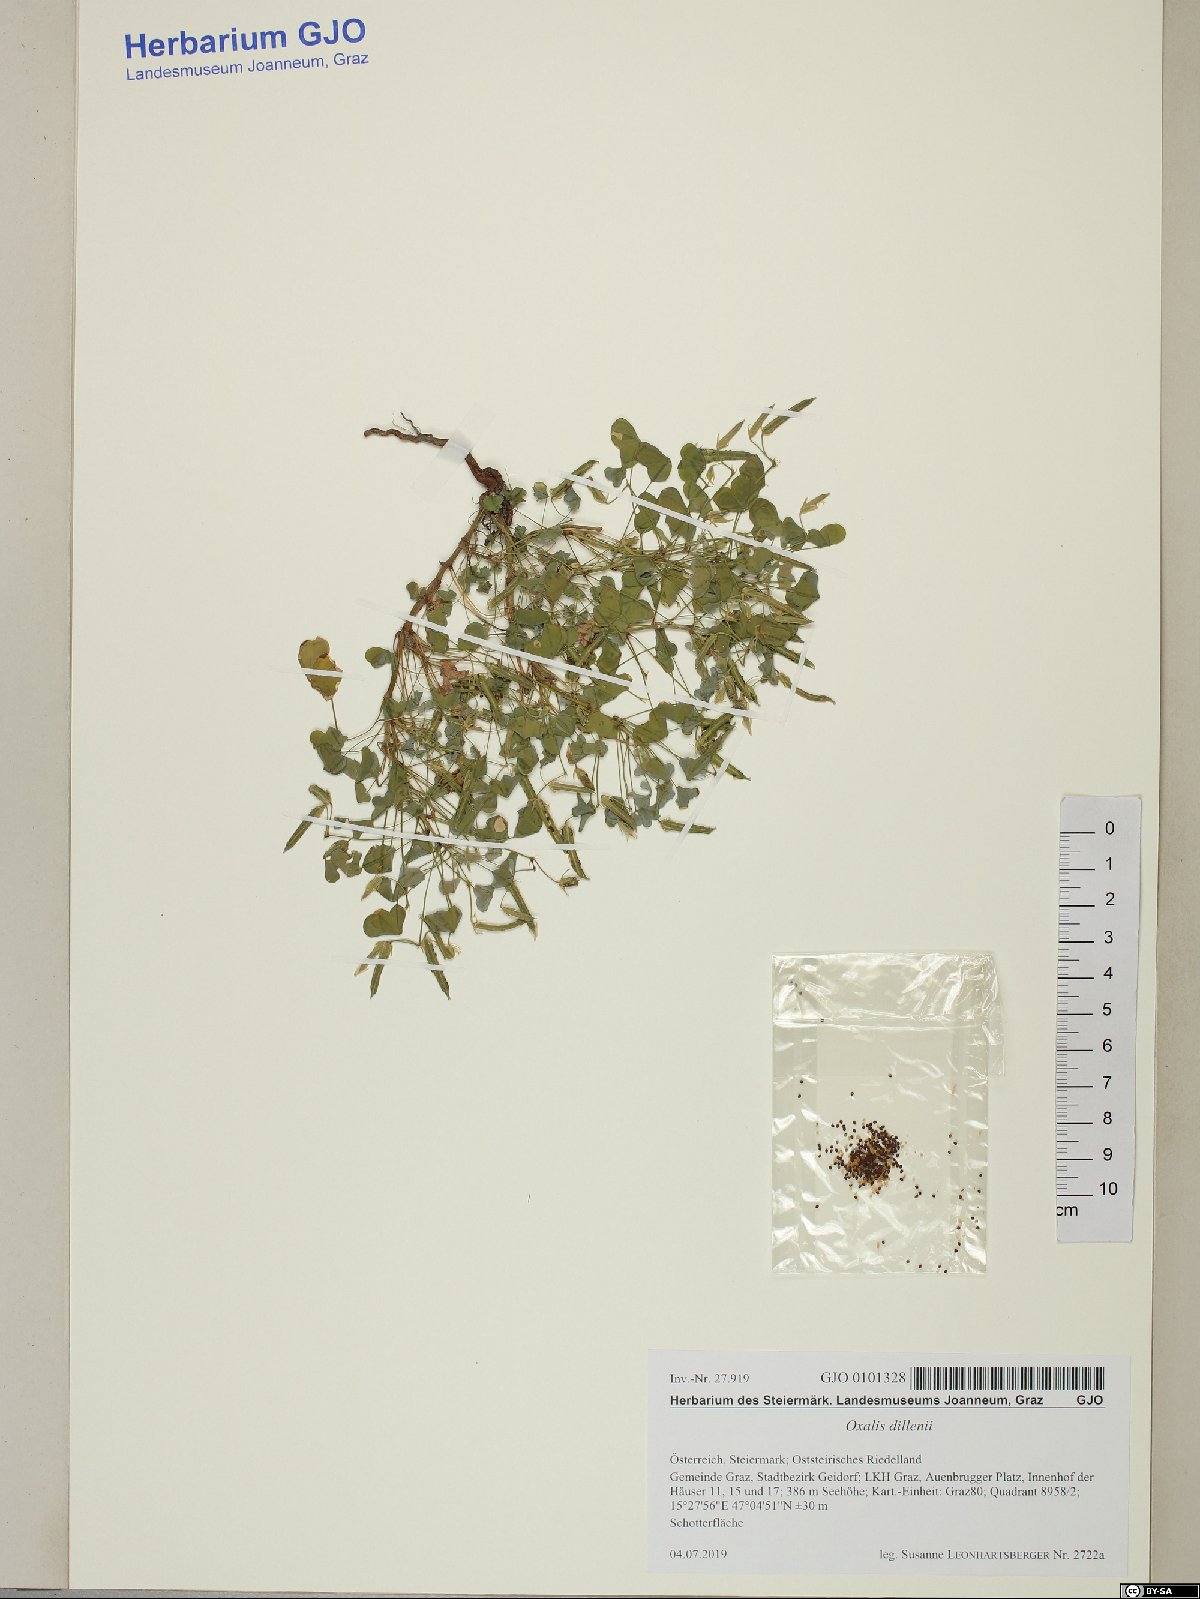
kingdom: Plantae
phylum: Tracheophyta
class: Magnoliopsida
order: Oxalidales
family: Oxalidaceae
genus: Oxalis
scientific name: Oxalis dillenii
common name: Sussex yellow-sorrel
